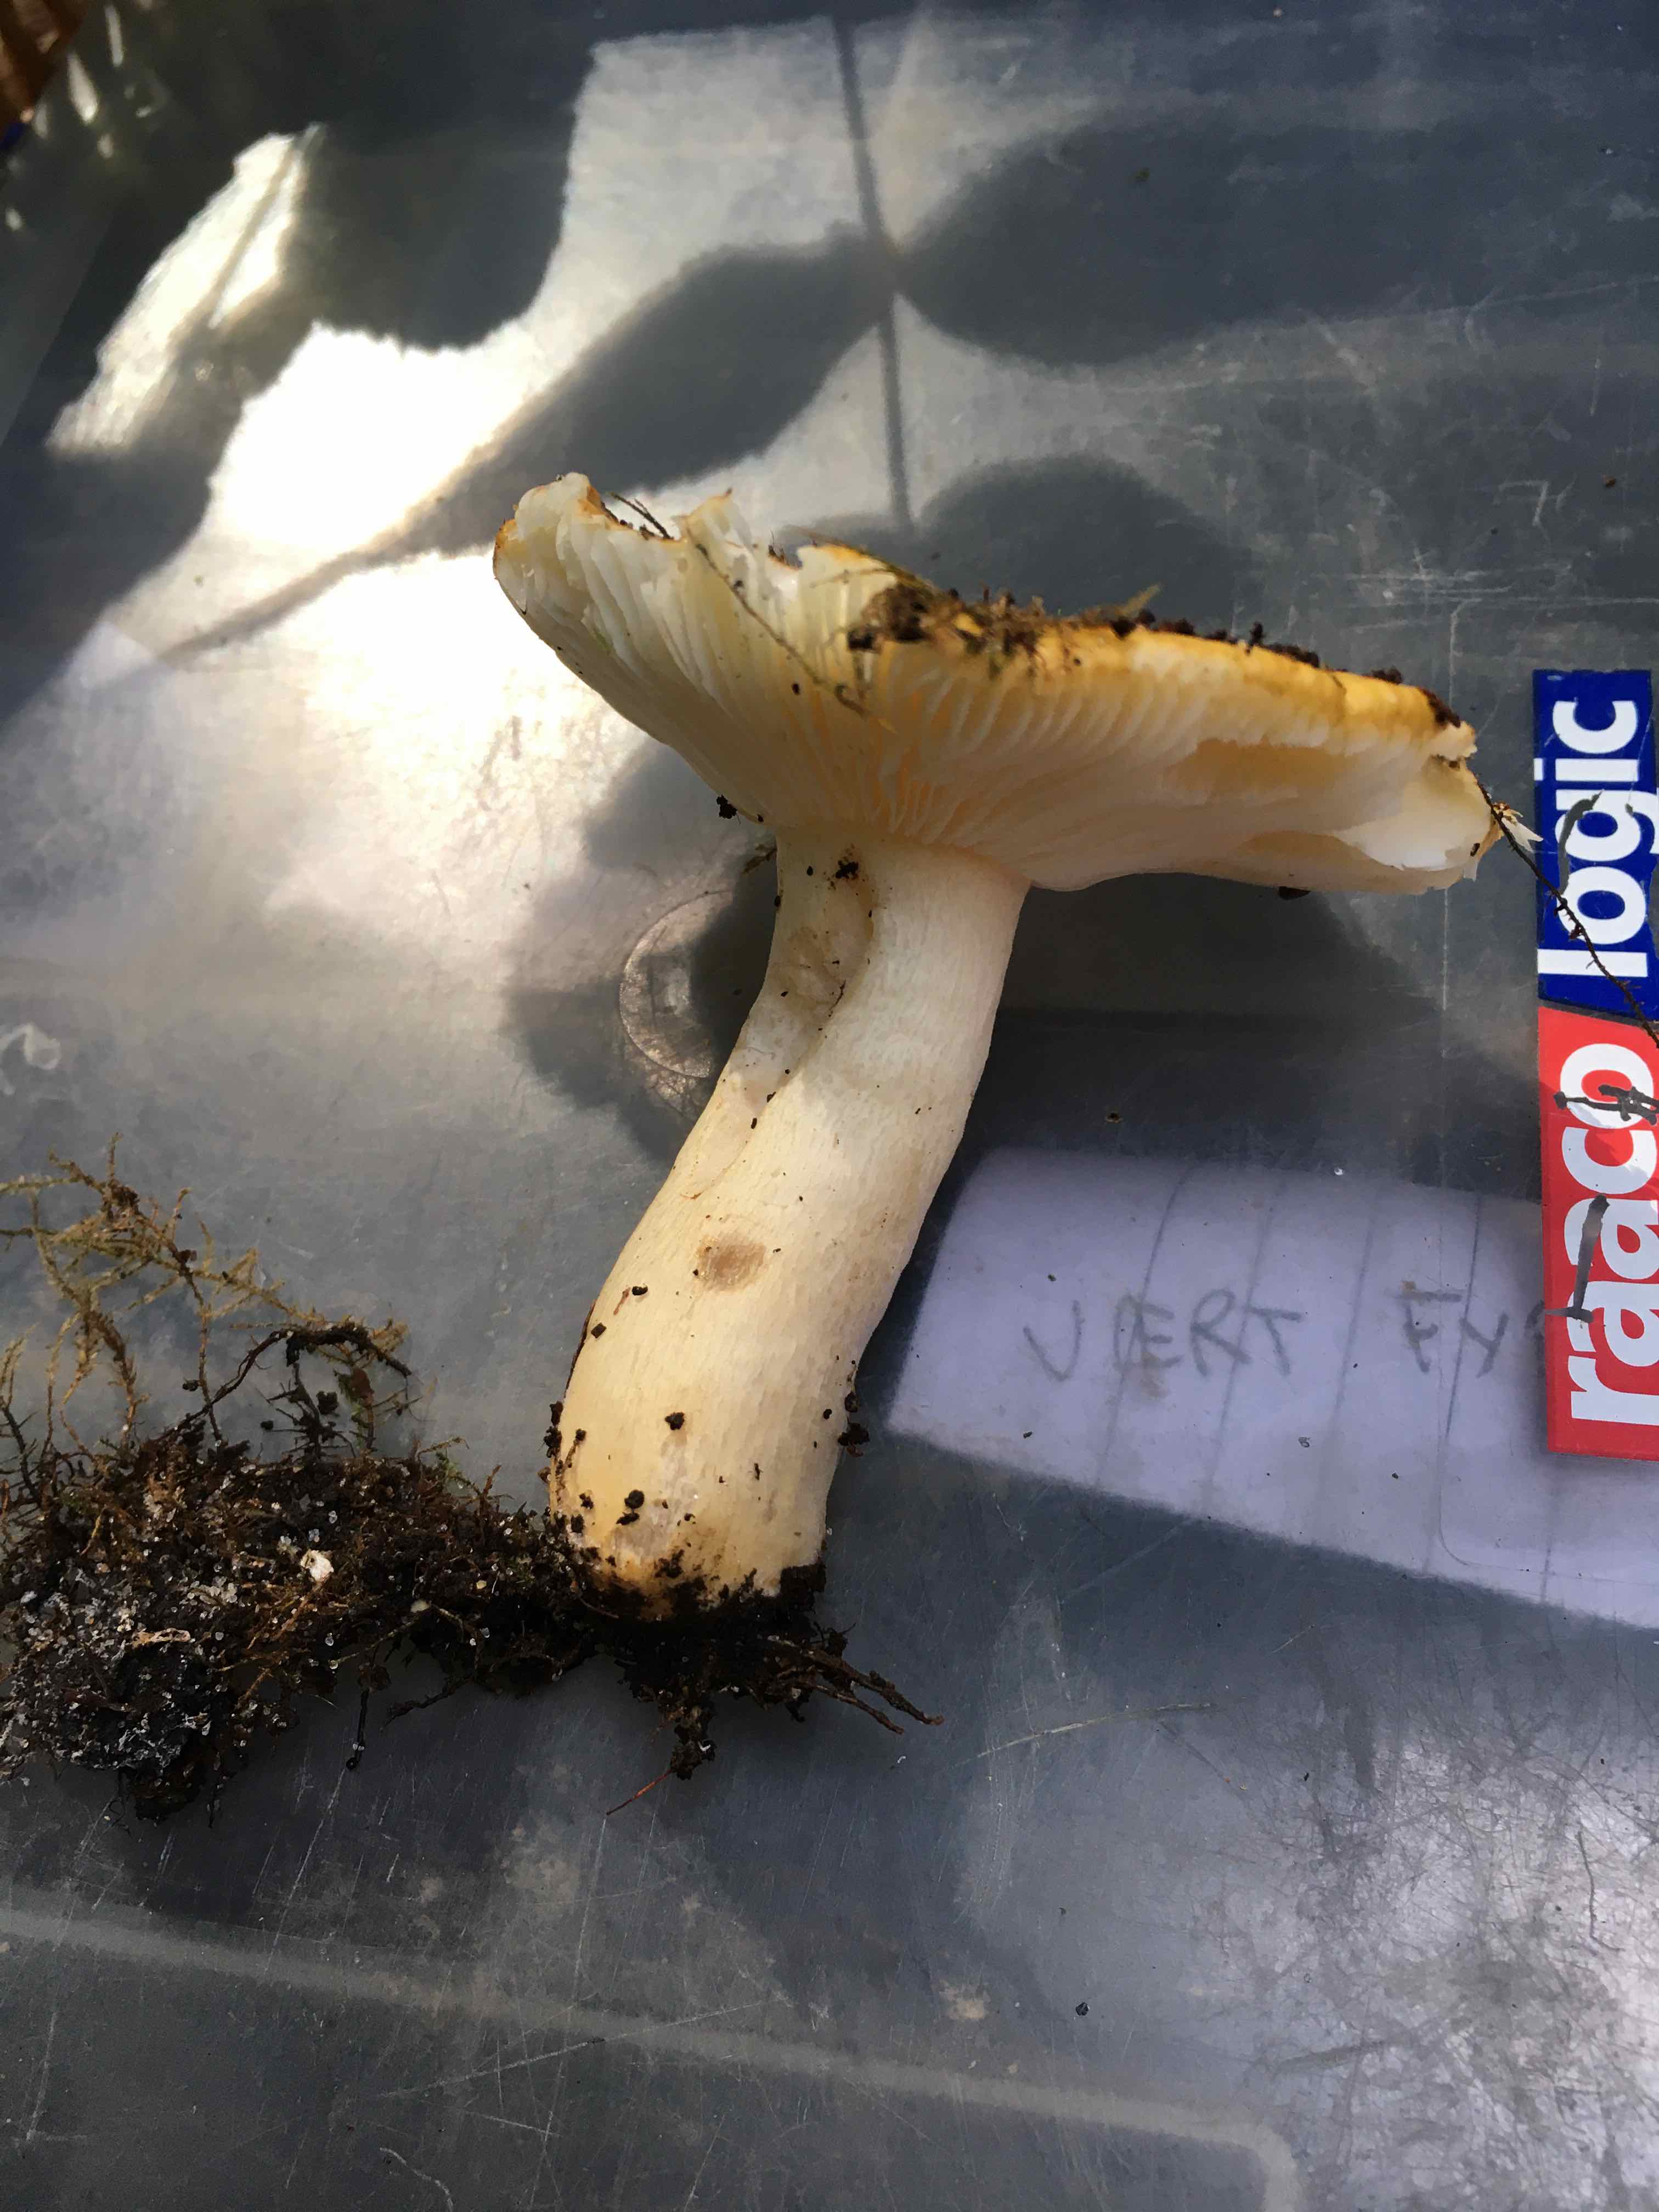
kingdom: Fungi
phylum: Basidiomycota
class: Agaricomycetes
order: Russulales
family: Russulaceae
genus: Russula
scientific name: Russula ochroleuca
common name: okkergul skørhat
